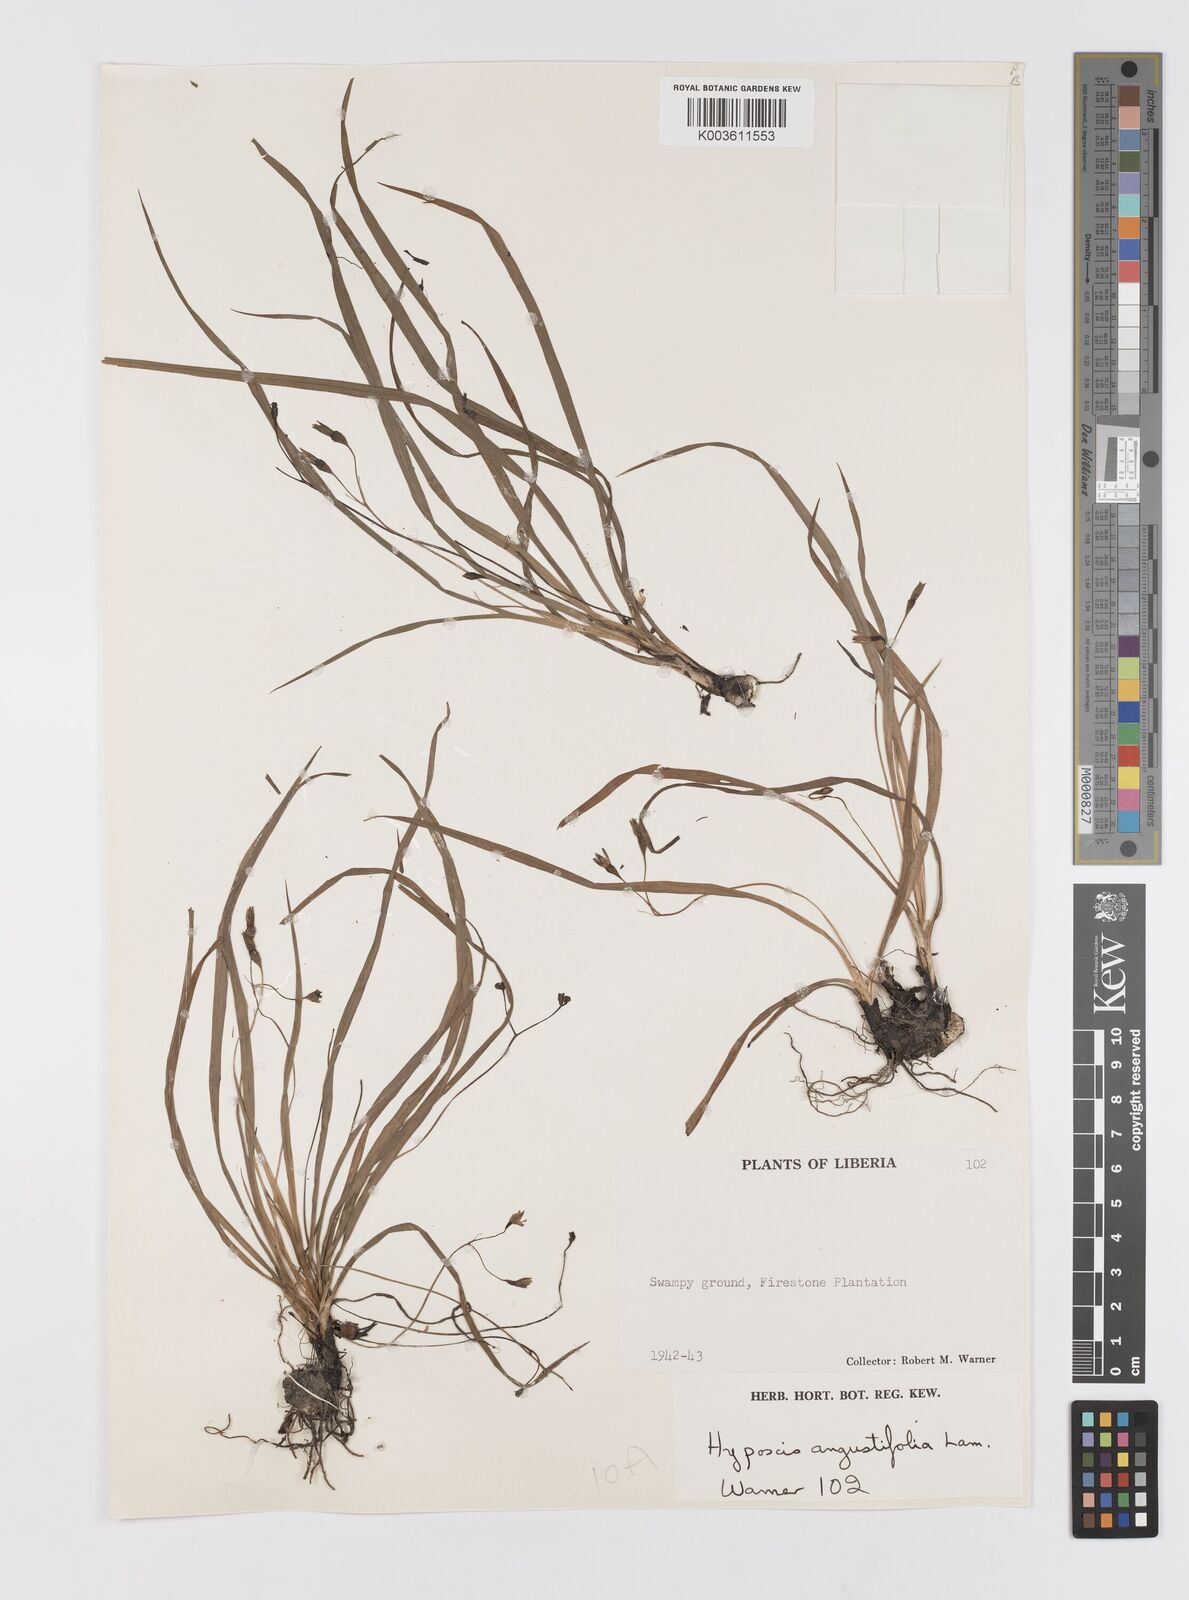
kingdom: Plantae
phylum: Tracheophyta
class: Liliopsida
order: Asparagales
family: Hypoxidaceae
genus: Hypoxis
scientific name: Hypoxis angustifolia
